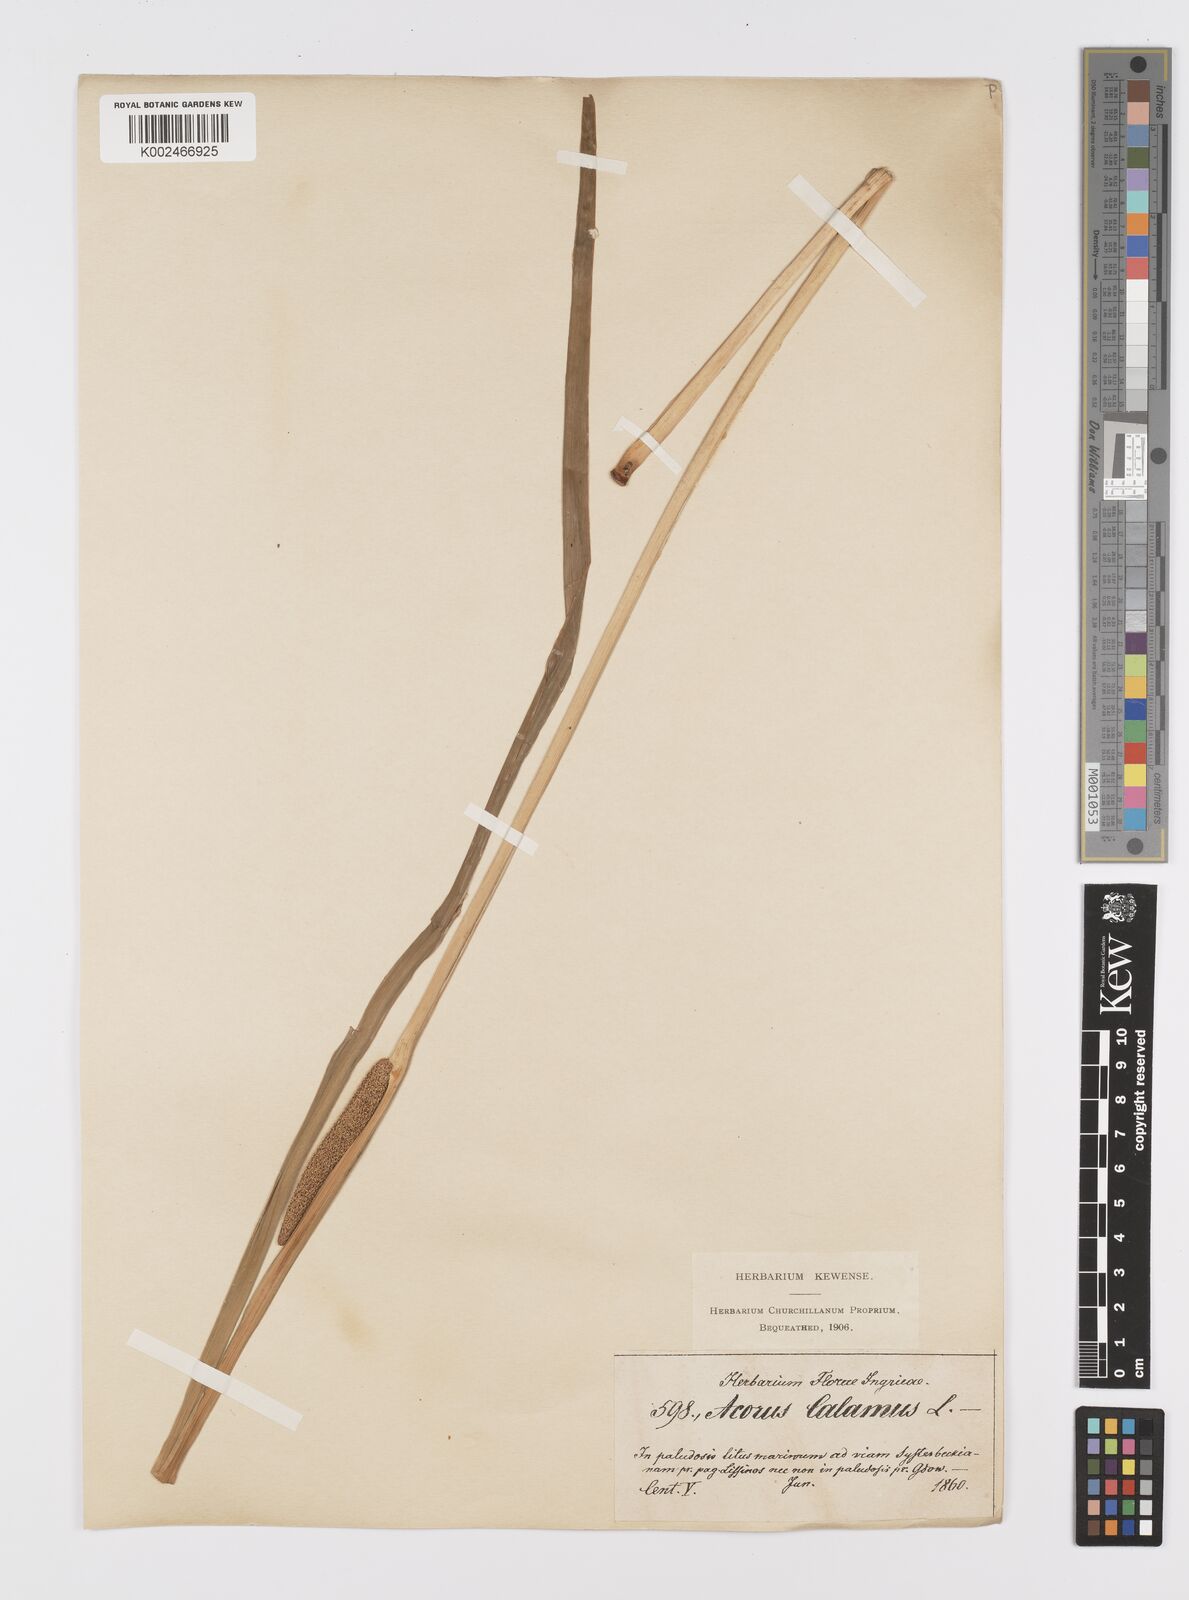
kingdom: Plantae
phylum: Tracheophyta
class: Liliopsida
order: Acorales
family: Acoraceae
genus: Acorus
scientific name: Acorus calamus
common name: Sweet-flag
